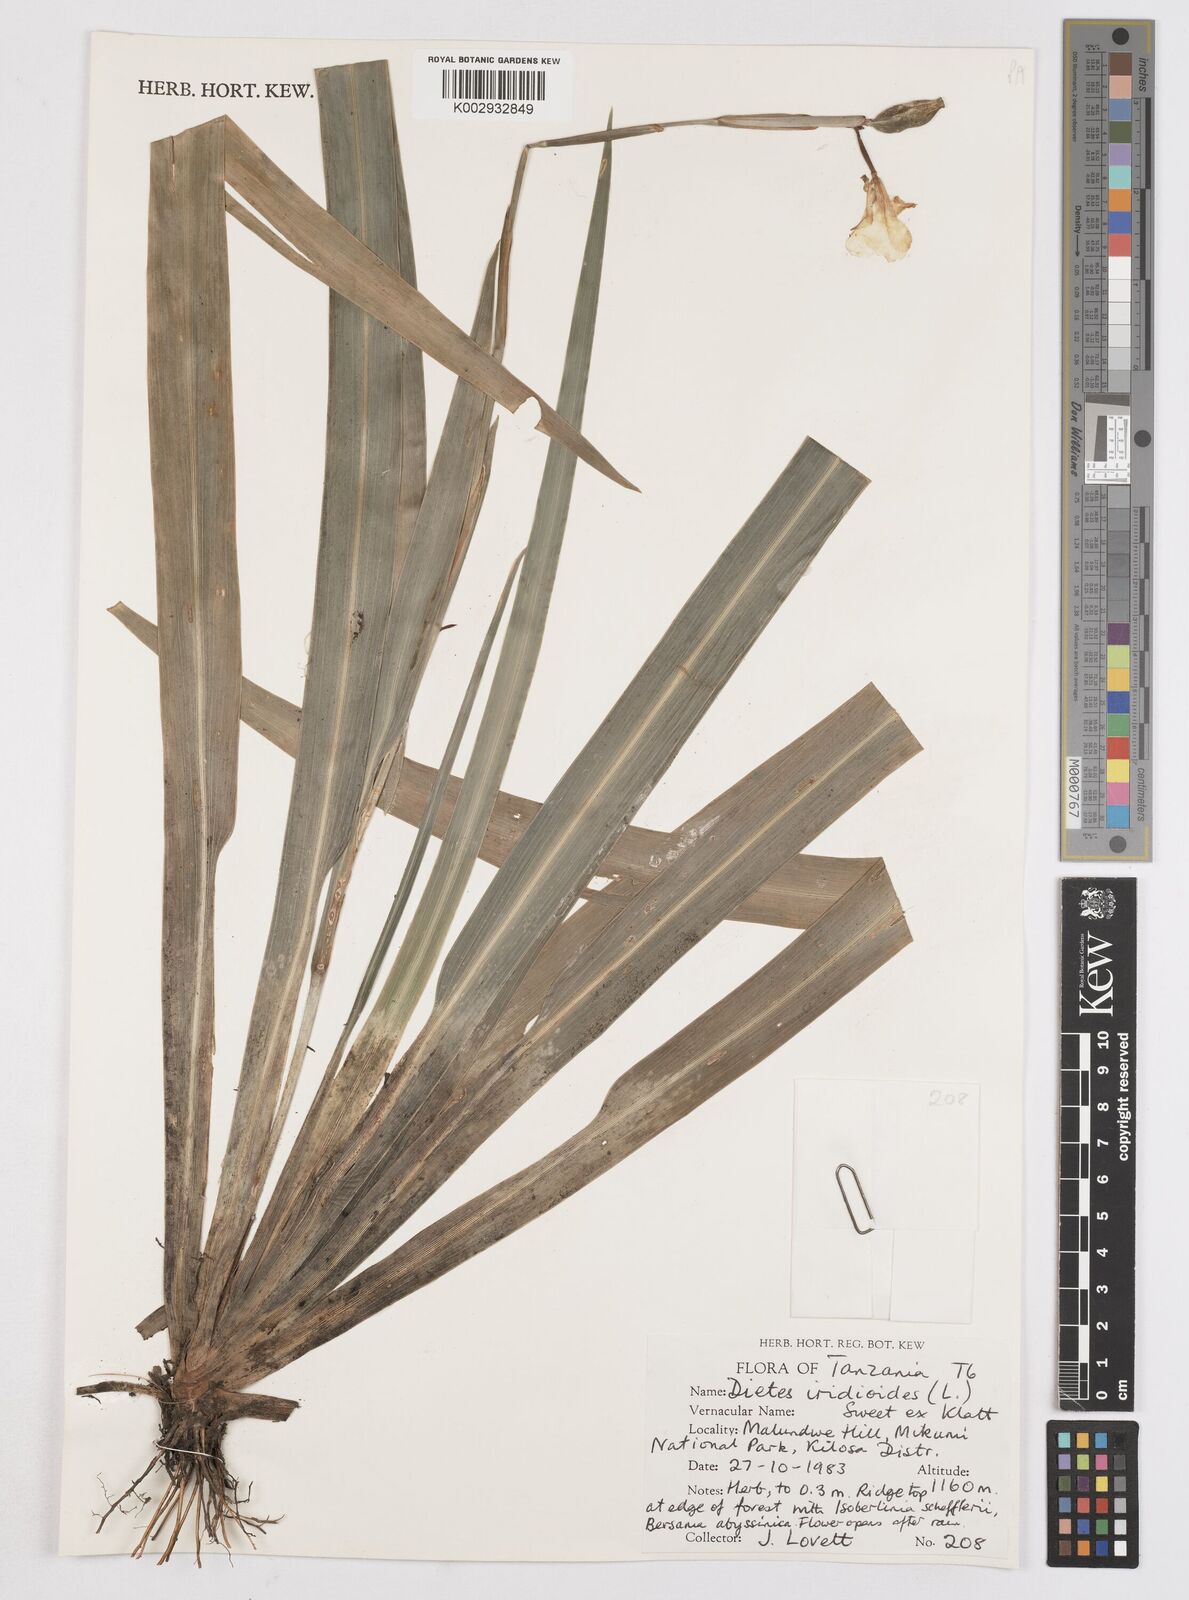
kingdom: Plantae
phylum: Tracheophyta
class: Liliopsida
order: Asparagales
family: Iridaceae
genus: Dietes
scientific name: Dietes iridioides
